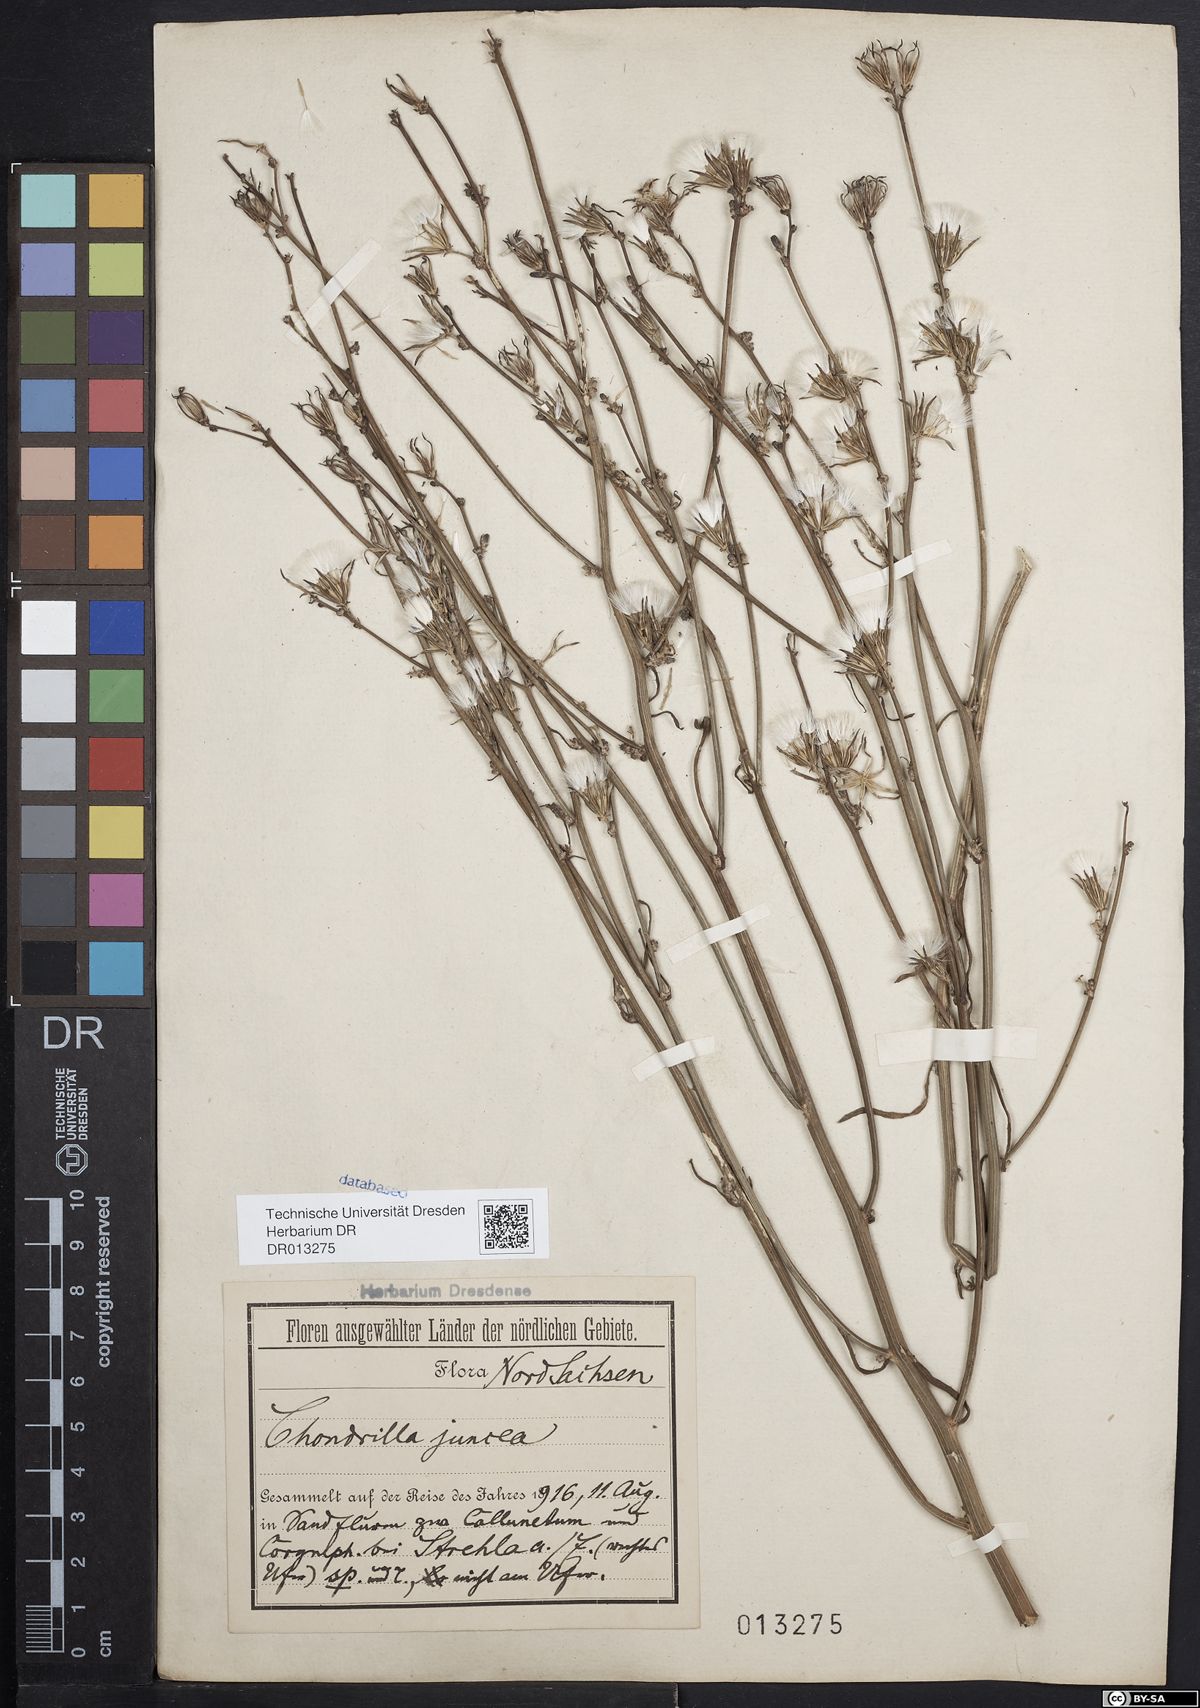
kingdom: Plantae
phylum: Tracheophyta
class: Magnoliopsida
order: Asterales
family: Asteraceae
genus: Chondrilla
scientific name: Chondrilla juncea
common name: Skeleton weed
